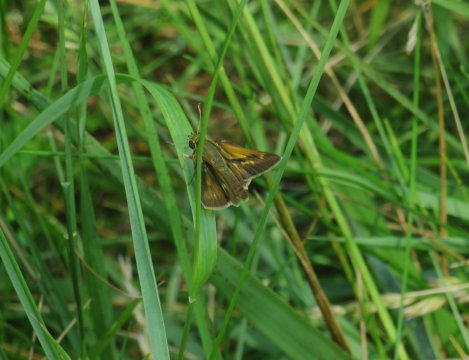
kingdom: Animalia
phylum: Arthropoda
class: Insecta
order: Lepidoptera
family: Hesperiidae
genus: Polites
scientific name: Polites
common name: Crossline Skipper
